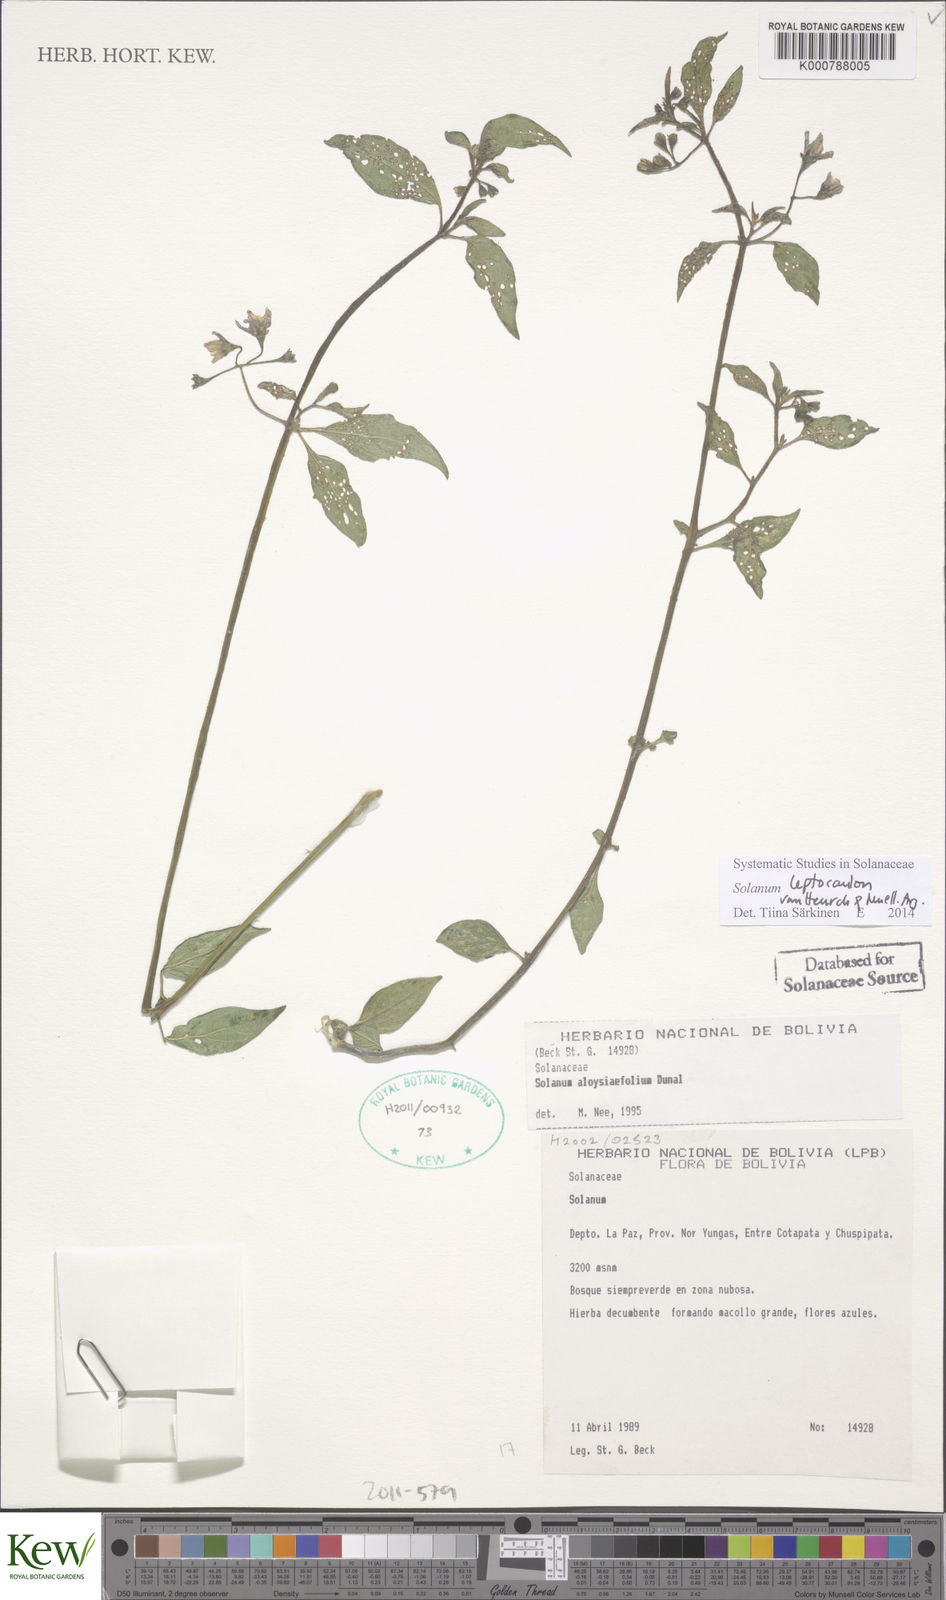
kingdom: Plantae
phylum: Tracheophyta
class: Magnoliopsida
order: Solanales
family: Solanaceae
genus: Solanum
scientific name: Solanum dianthum
